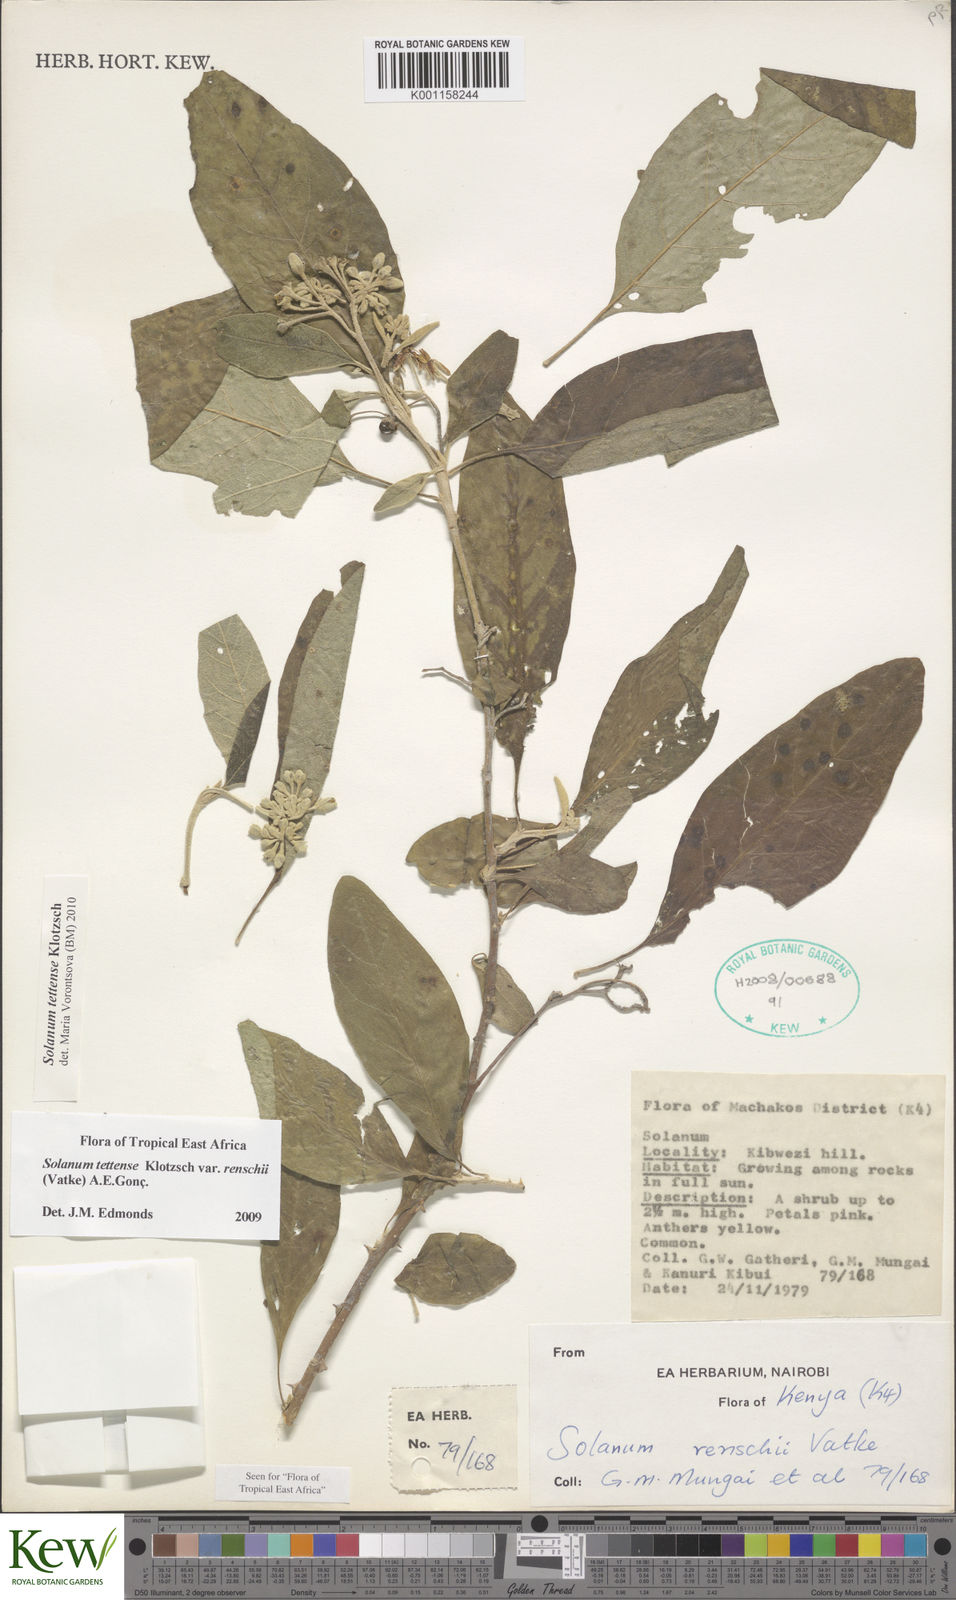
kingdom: Plantae
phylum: Tracheophyta
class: Magnoliopsida
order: Solanales
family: Solanaceae
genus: Solanum
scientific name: Solanum tettense
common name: Mozambique bitter apple
